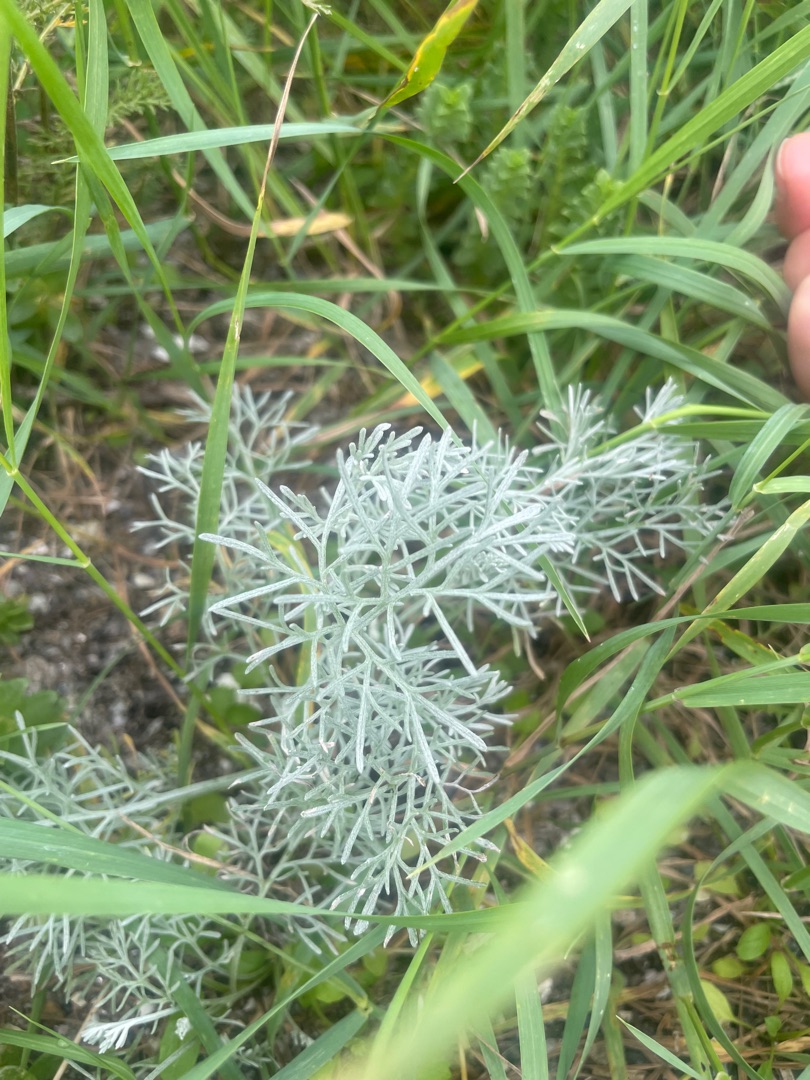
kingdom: Plantae
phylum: Tracheophyta
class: Magnoliopsida
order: Asterales
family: Asteraceae
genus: Artemisia
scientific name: Artemisia maritima
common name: Strandmalurt
